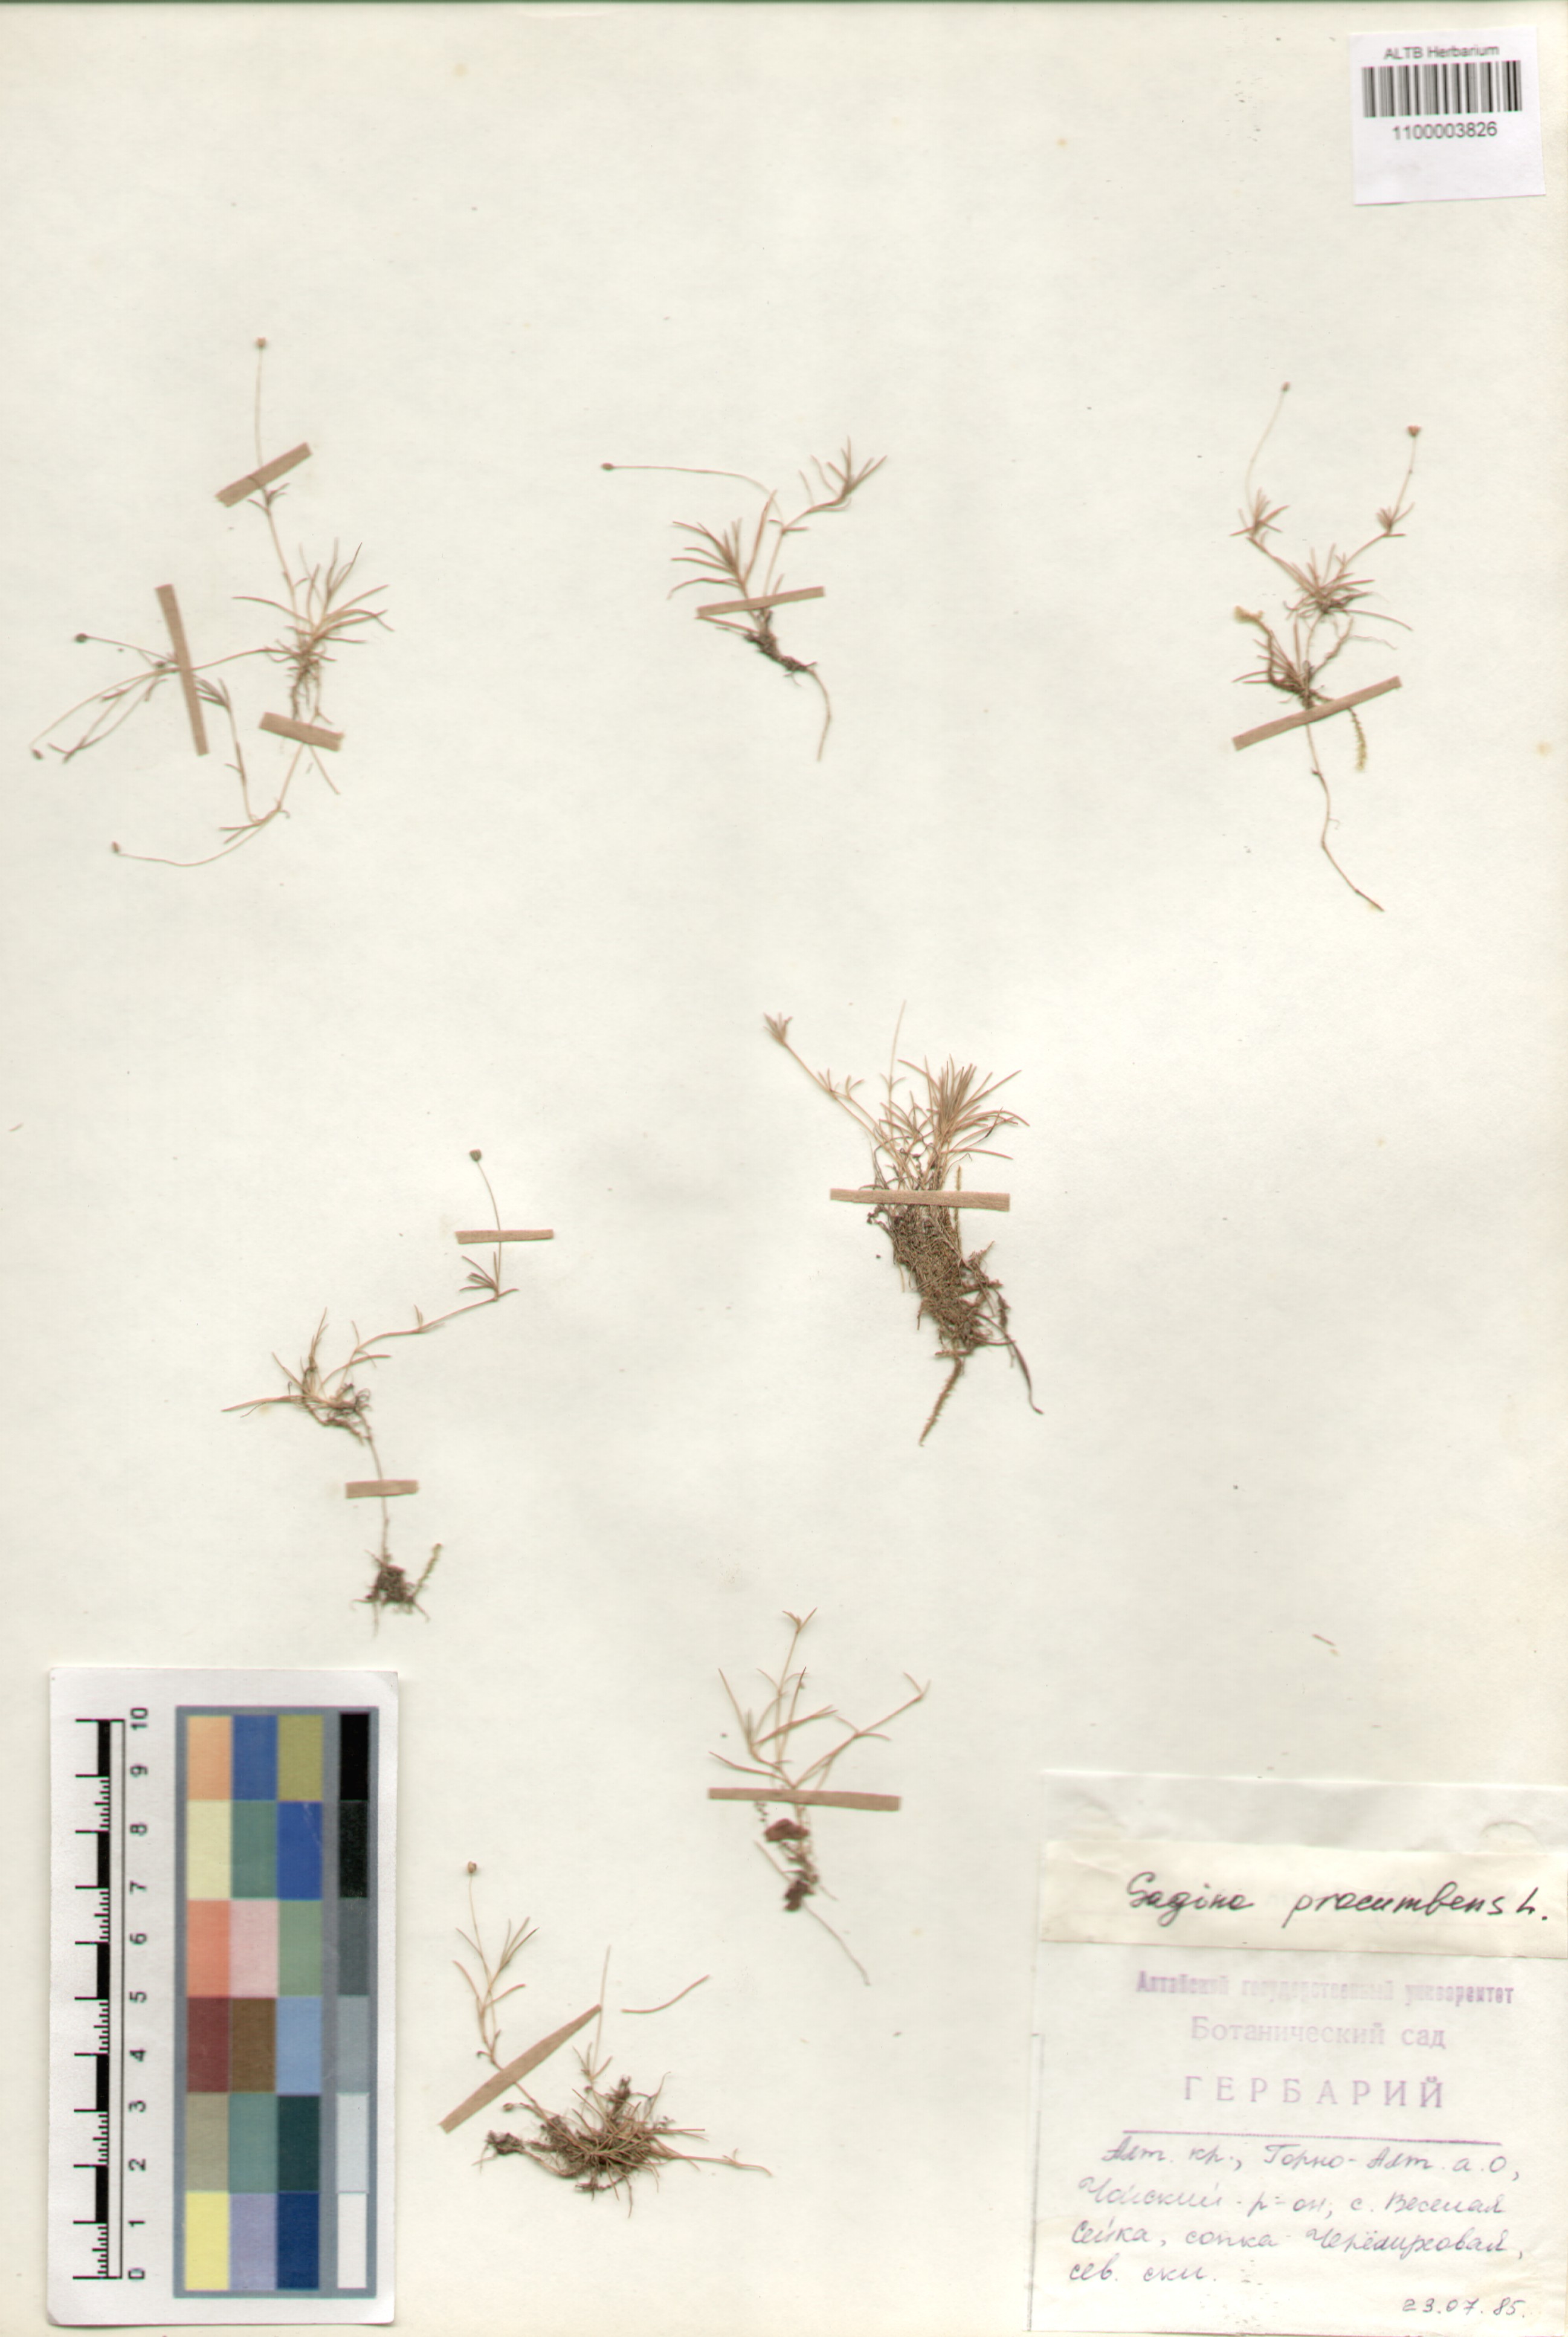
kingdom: Plantae
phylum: Tracheophyta
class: Magnoliopsida
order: Caryophyllales
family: Caryophyllaceae
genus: Sagina
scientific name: Sagina procumbens
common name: Procumbent pearlwort
